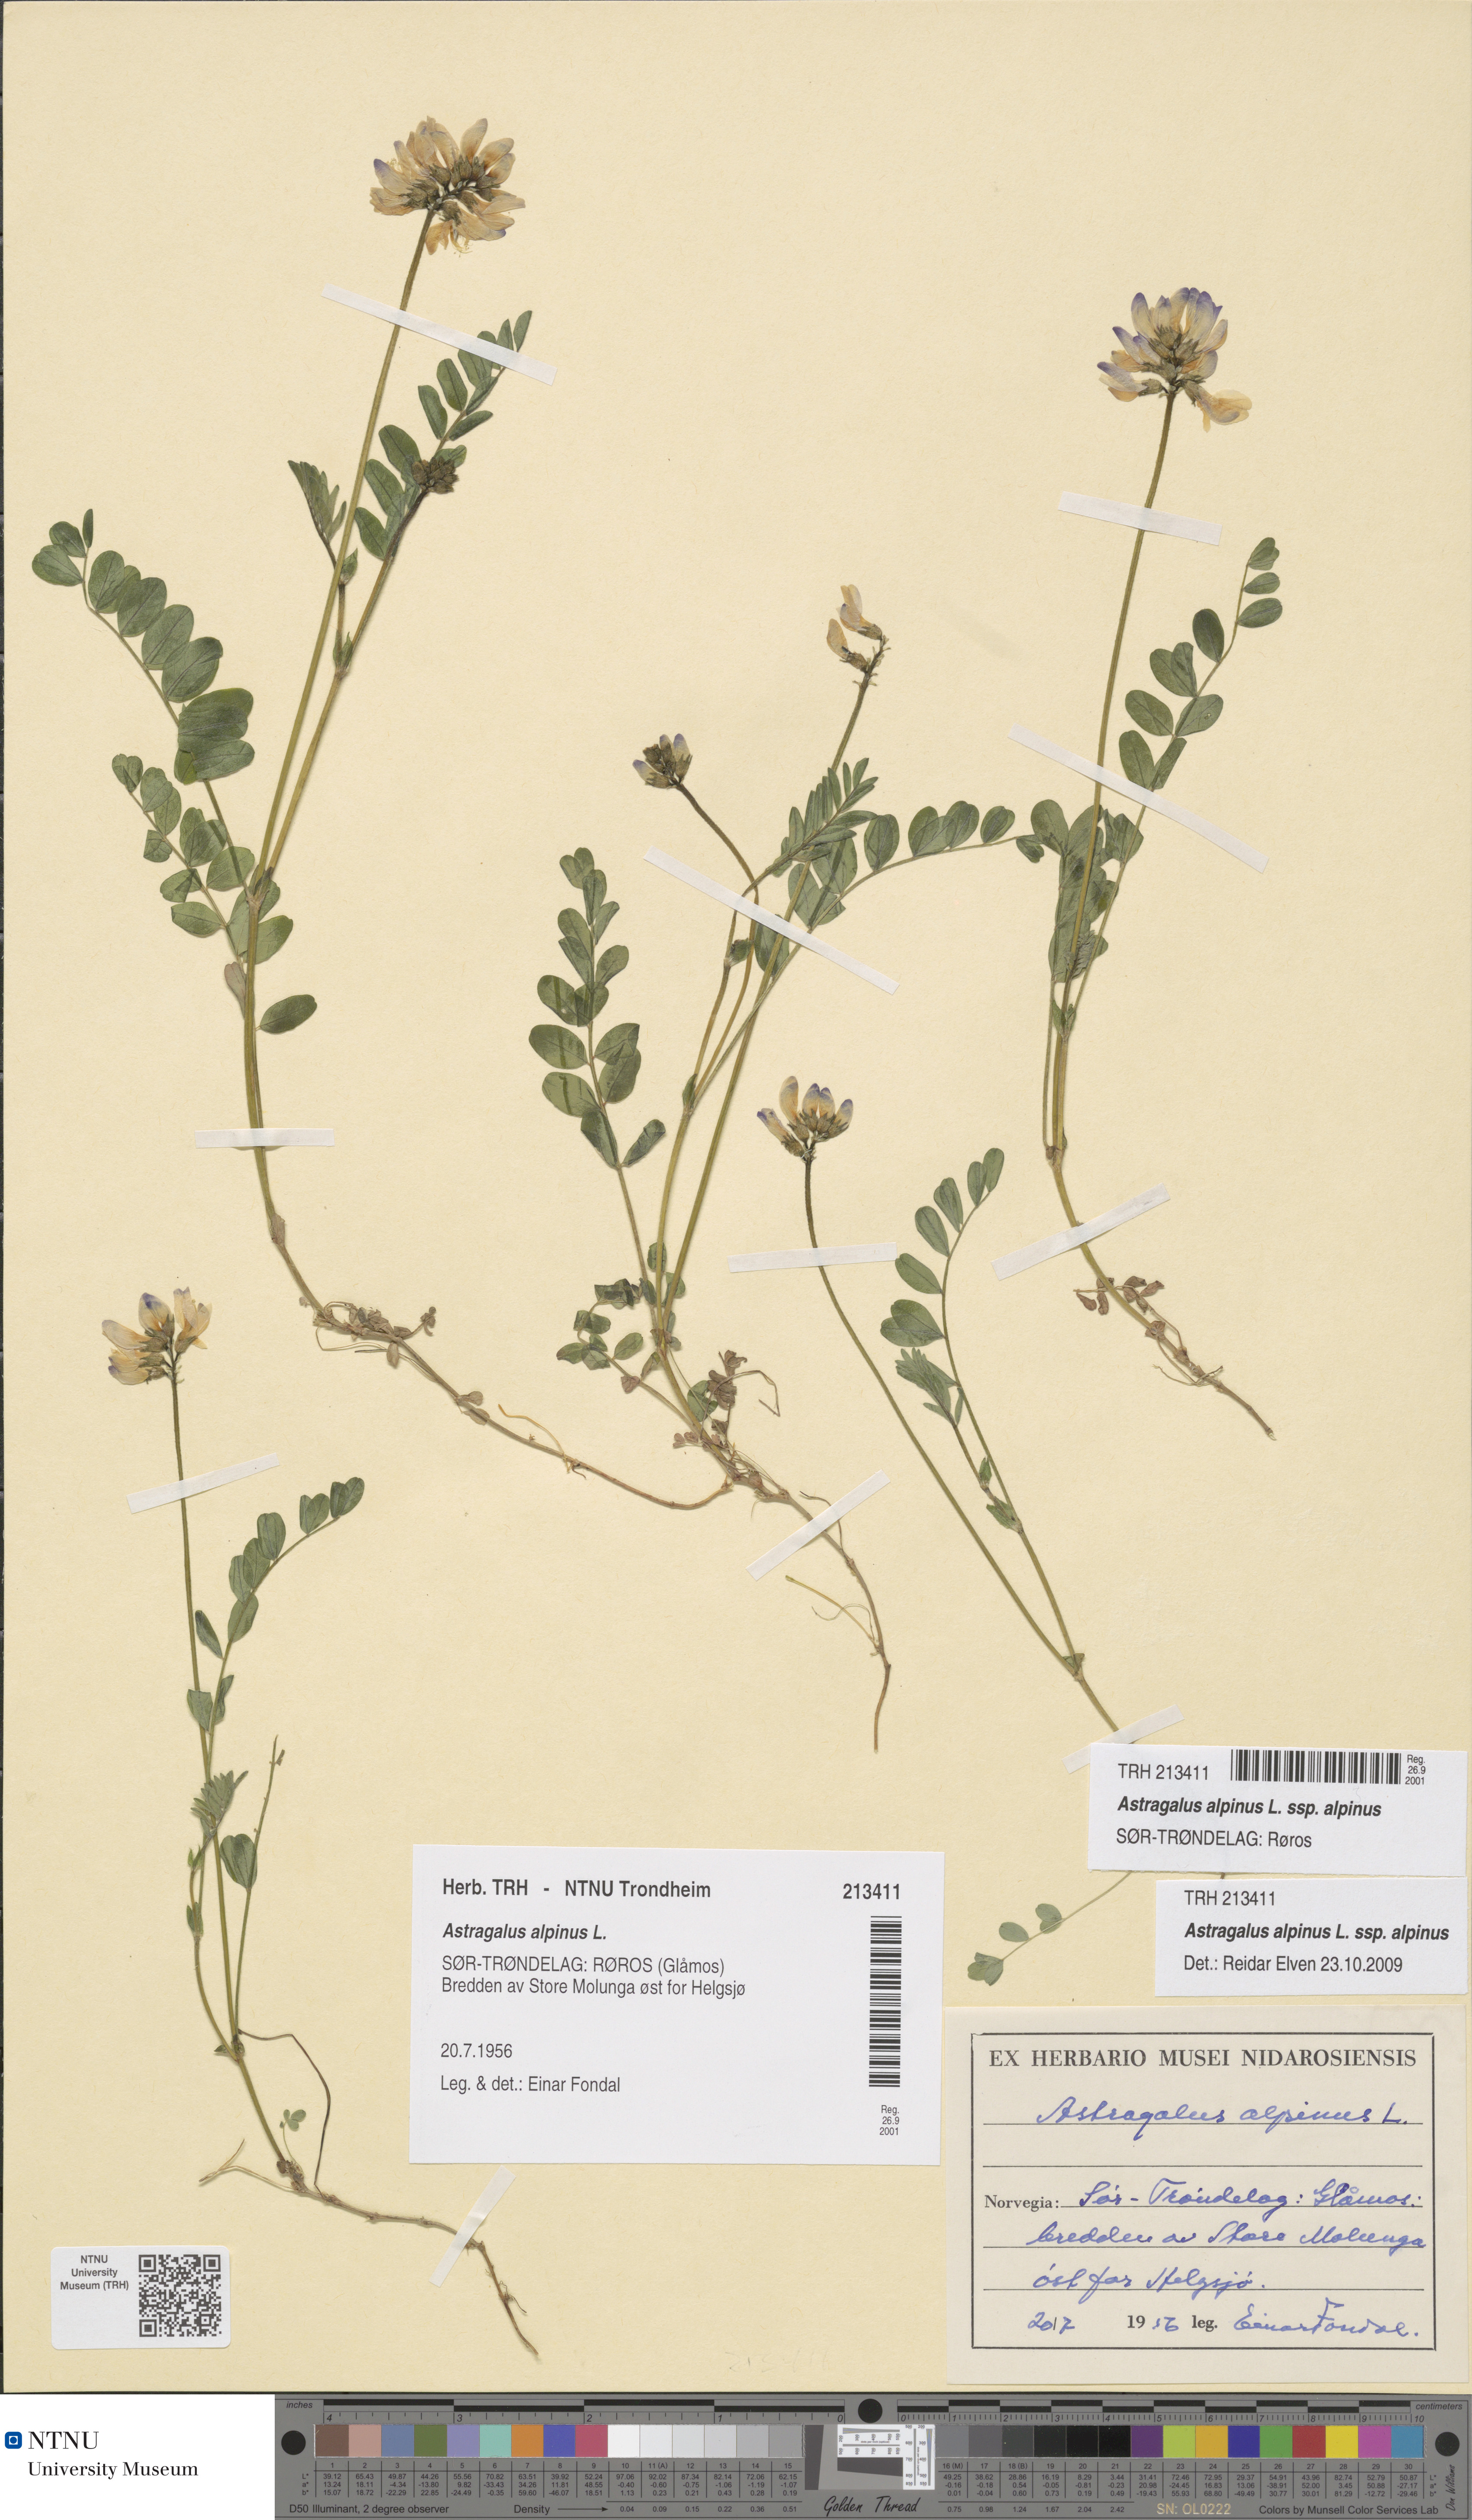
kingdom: Plantae
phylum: Tracheophyta
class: Magnoliopsida
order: Fabales
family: Fabaceae
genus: Astragalus
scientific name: Astragalus alpinus
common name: Alpine milk-vetch
